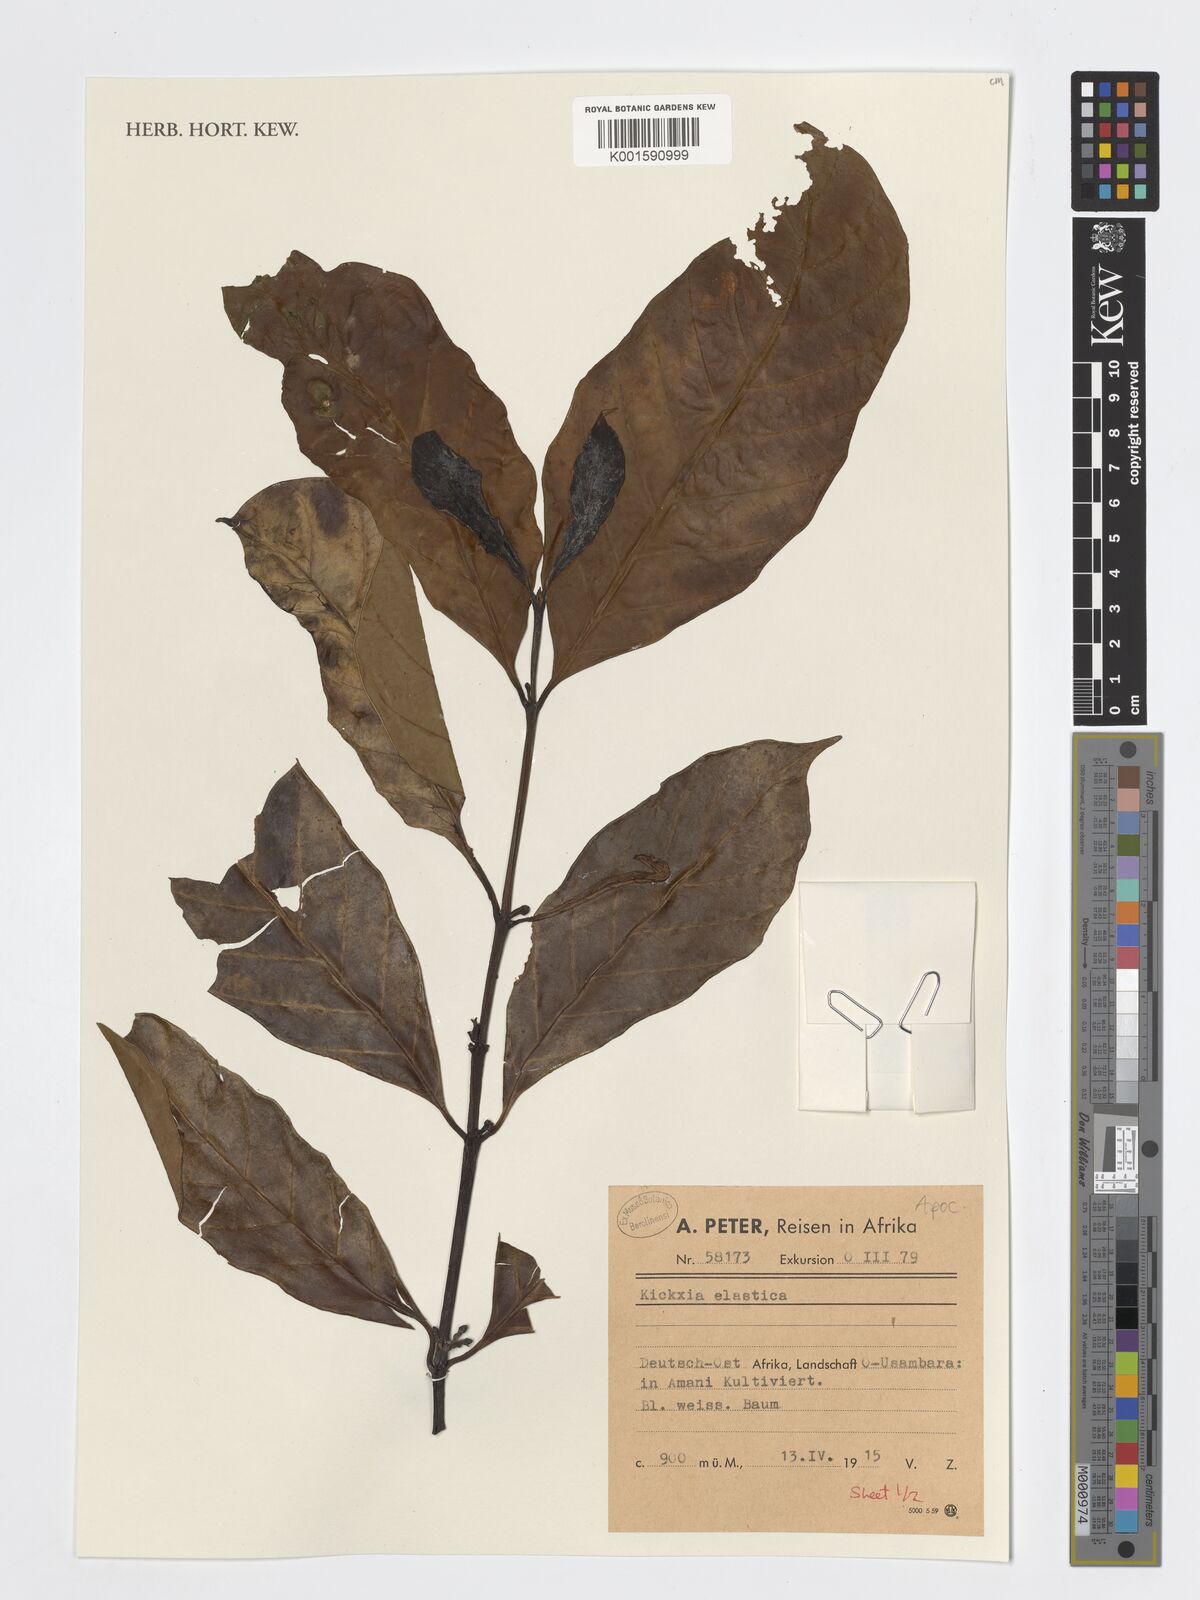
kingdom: Plantae
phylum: Tracheophyta
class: Magnoliopsida
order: Gentianales
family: Apocynaceae
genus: Funtumia
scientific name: Funtumia elastica
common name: Silkrubber
